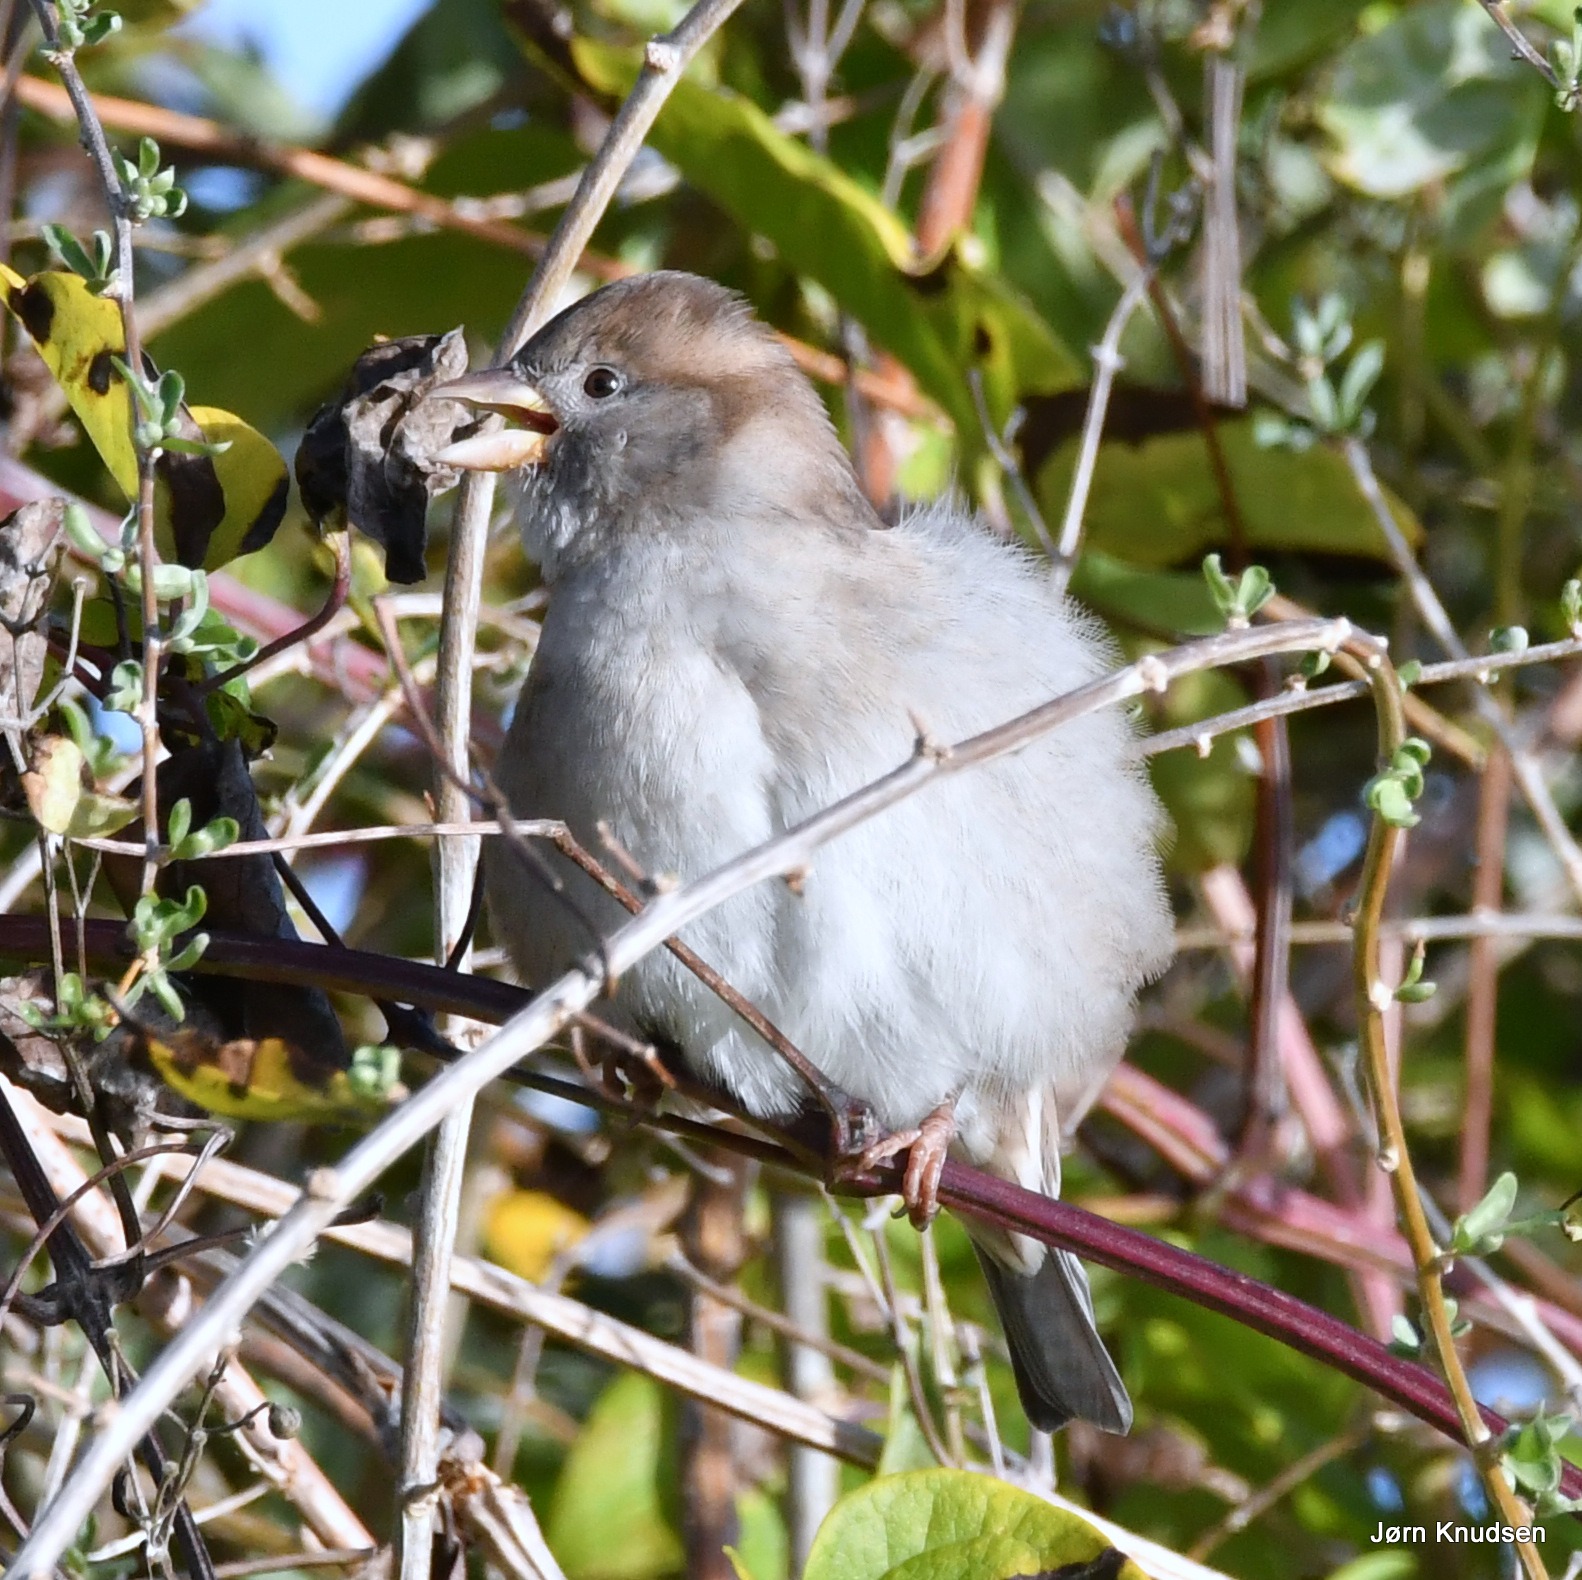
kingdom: Animalia
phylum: Chordata
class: Aves
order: Passeriformes
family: Passeridae
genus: Passer
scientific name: Passer domesticus
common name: Gråspurv
